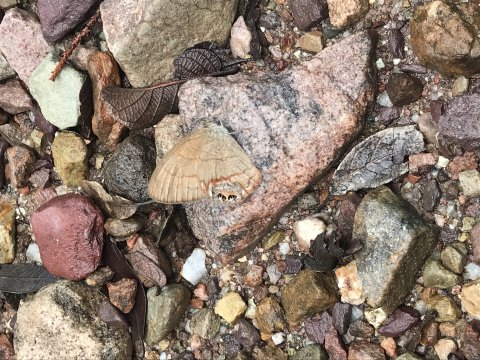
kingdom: Animalia
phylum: Arthropoda
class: Insecta
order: Lepidoptera
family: Nymphalidae
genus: Euptychia
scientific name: Euptychia pyracmon
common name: Nabokov's Satyr
